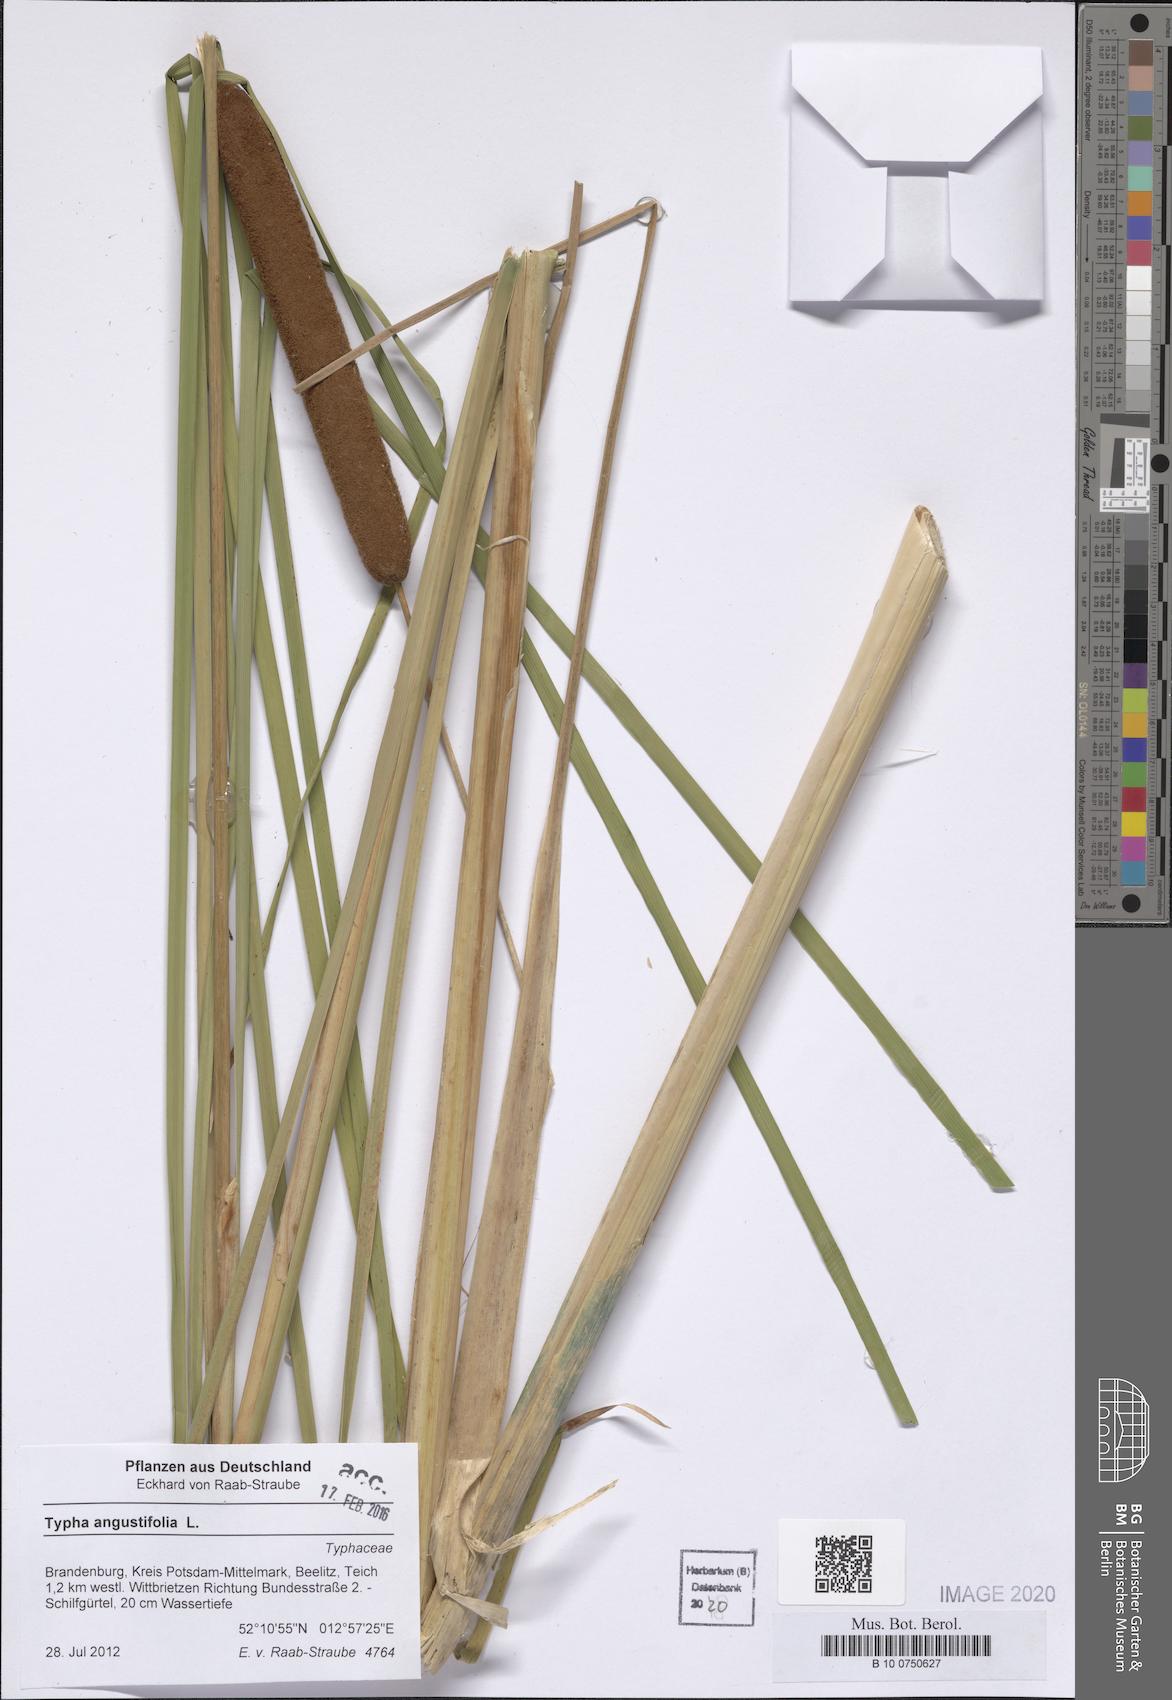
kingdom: Plantae
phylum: Tracheophyta
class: Liliopsida
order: Poales
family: Typhaceae
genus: Typha
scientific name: Typha angustifolia
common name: Lesser bulrush
